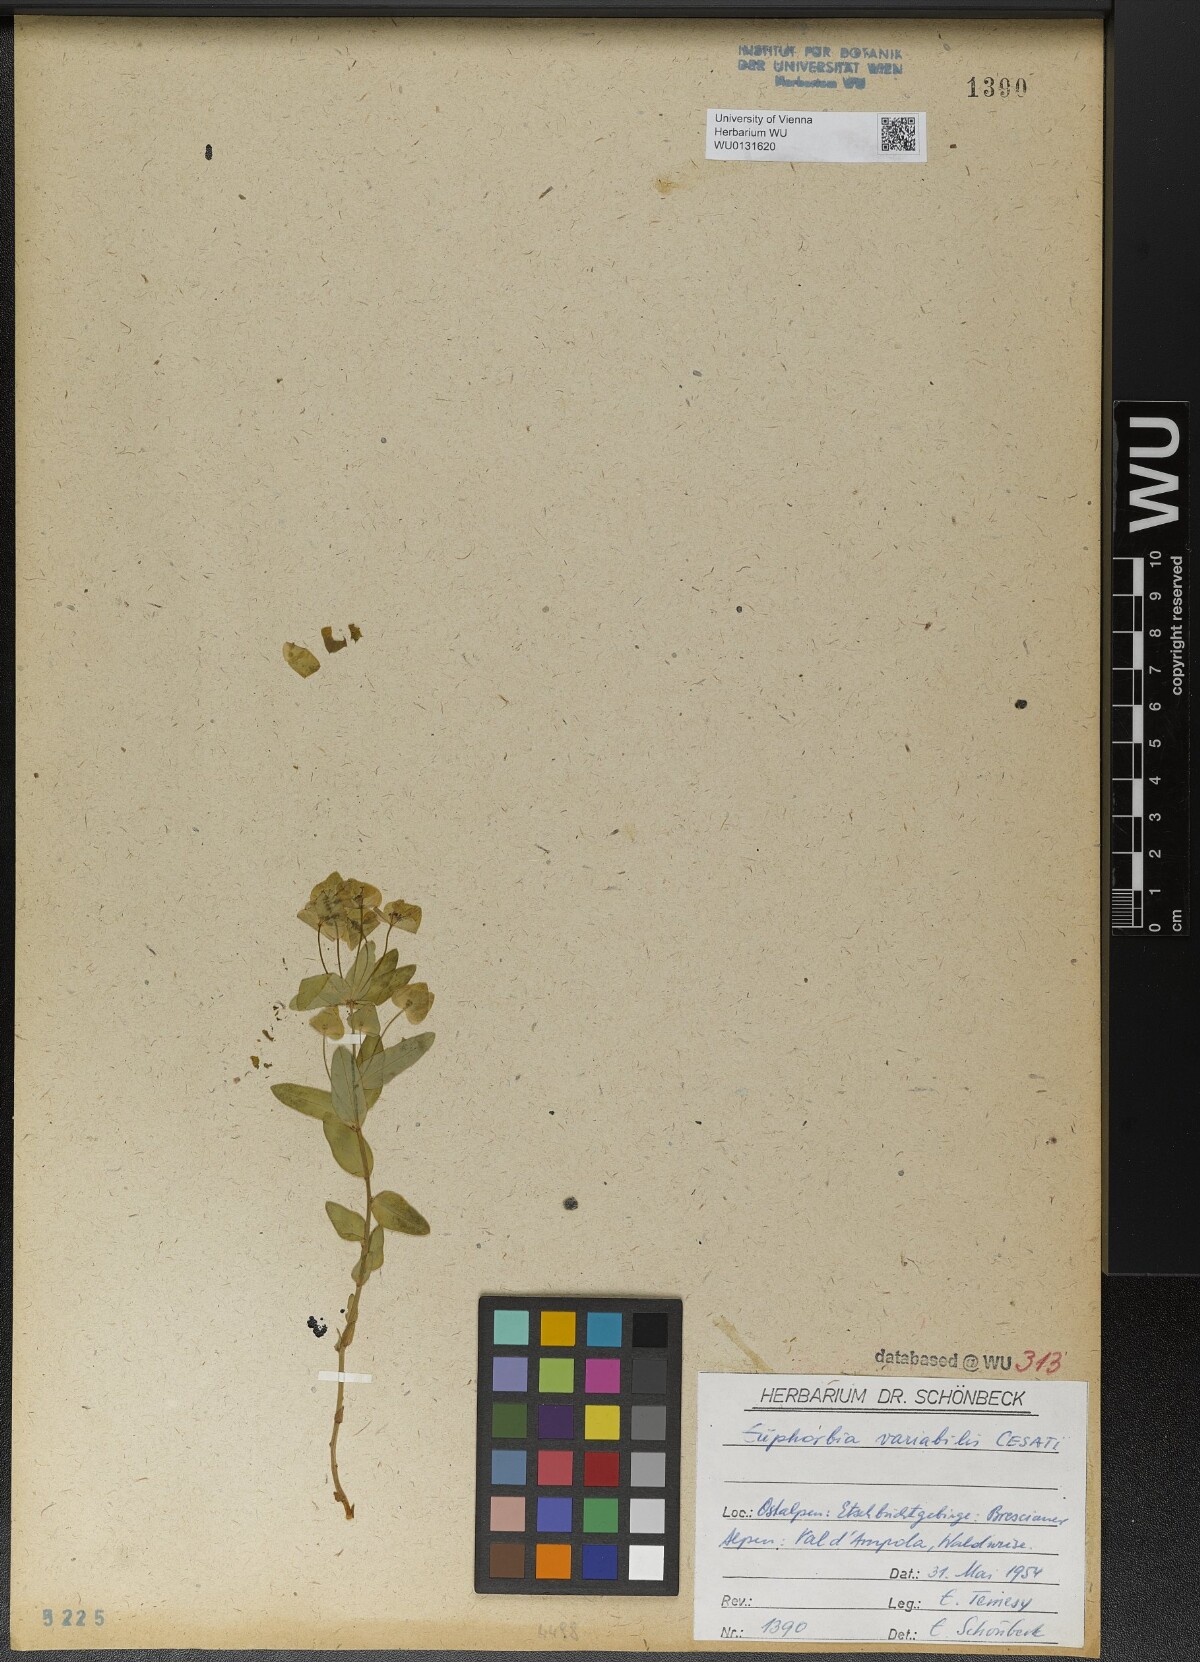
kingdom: Plantae
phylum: Tracheophyta
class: Magnoliopsida
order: Malpighiales
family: Euphorbiaceae
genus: Euphorbia
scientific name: Euphorbia variabilis
